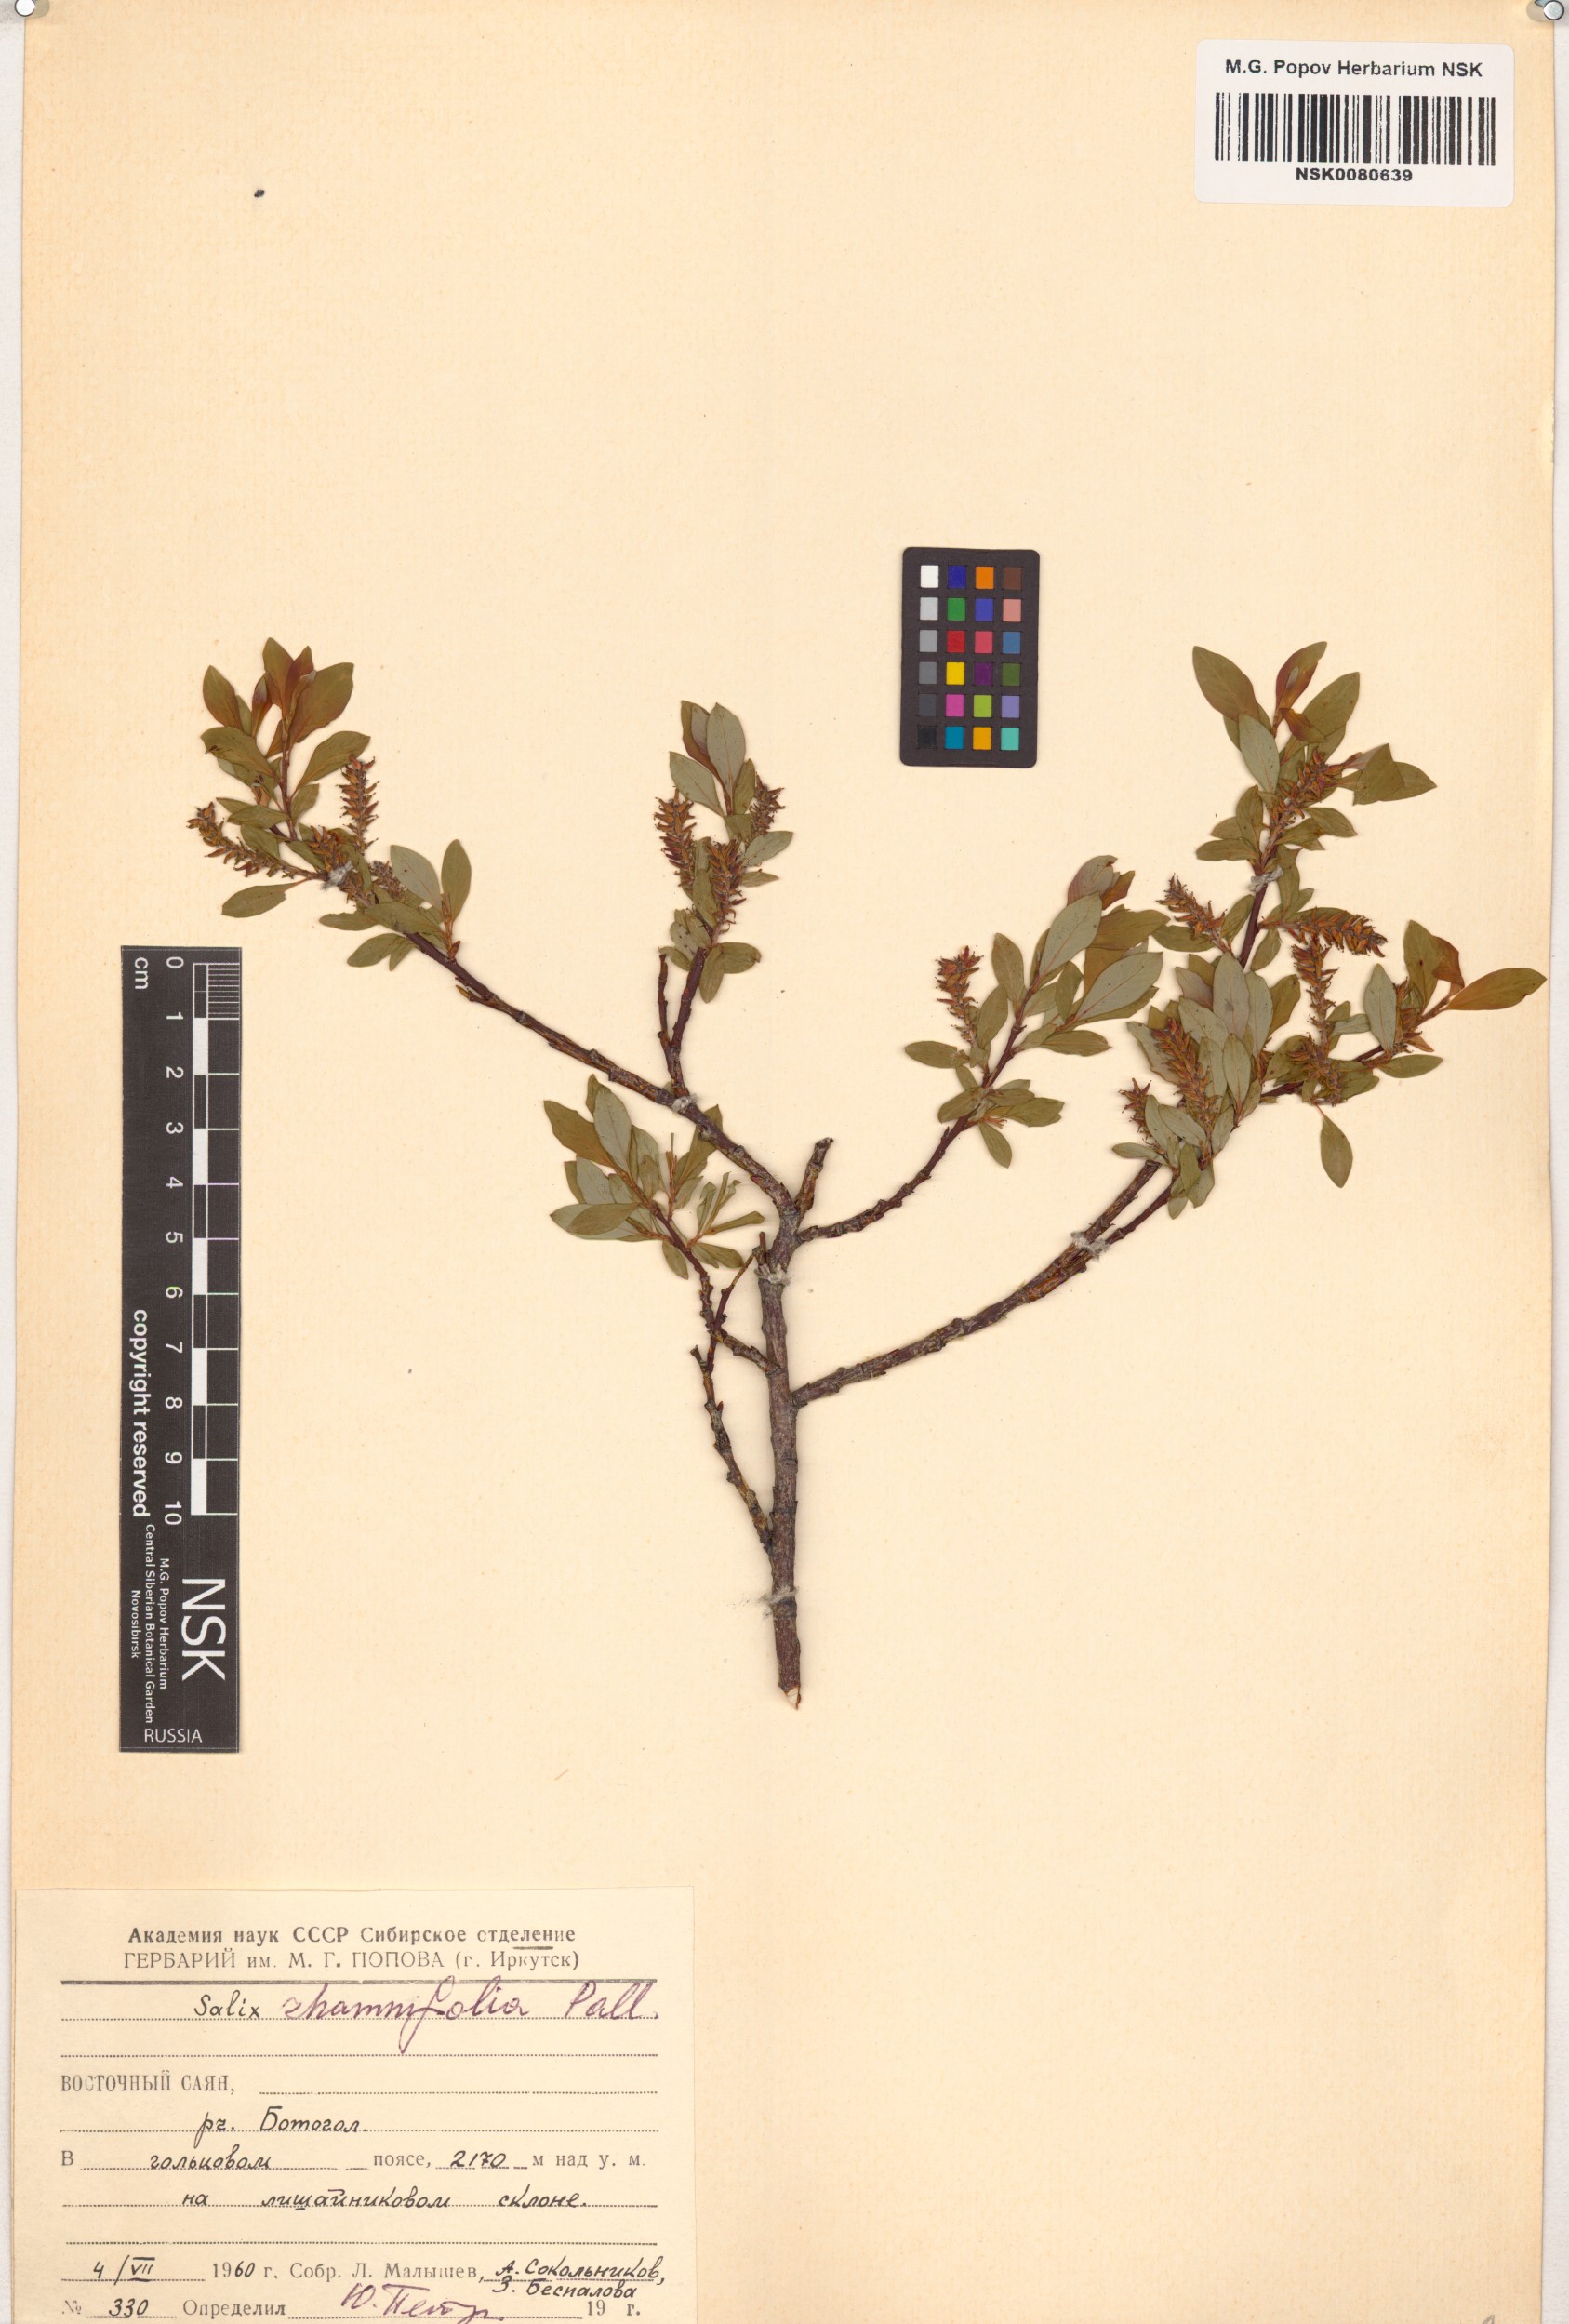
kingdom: Plantae
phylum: Tracheophyta
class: Magnoliopsida
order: Malpighiales
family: Salicaceae
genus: Salix
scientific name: Salix rhamnifolia
